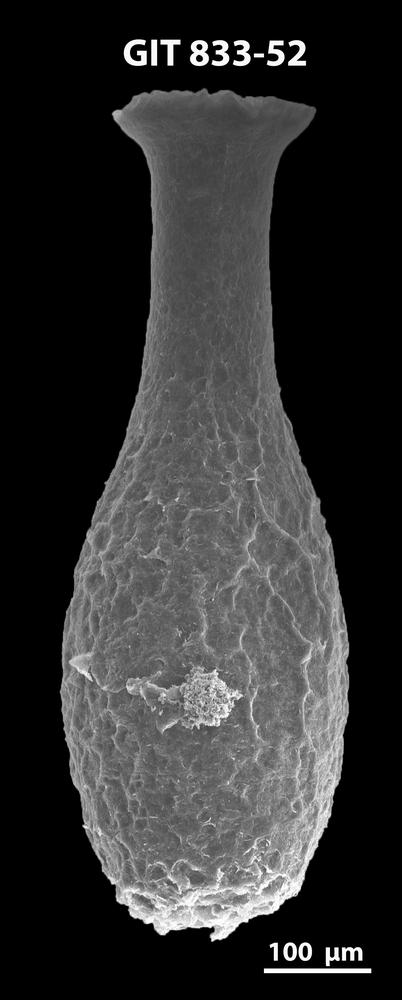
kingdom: Animalia
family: Lagenochitinidae
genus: Lagenochitina
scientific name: Lagenochitina megaesthonica
